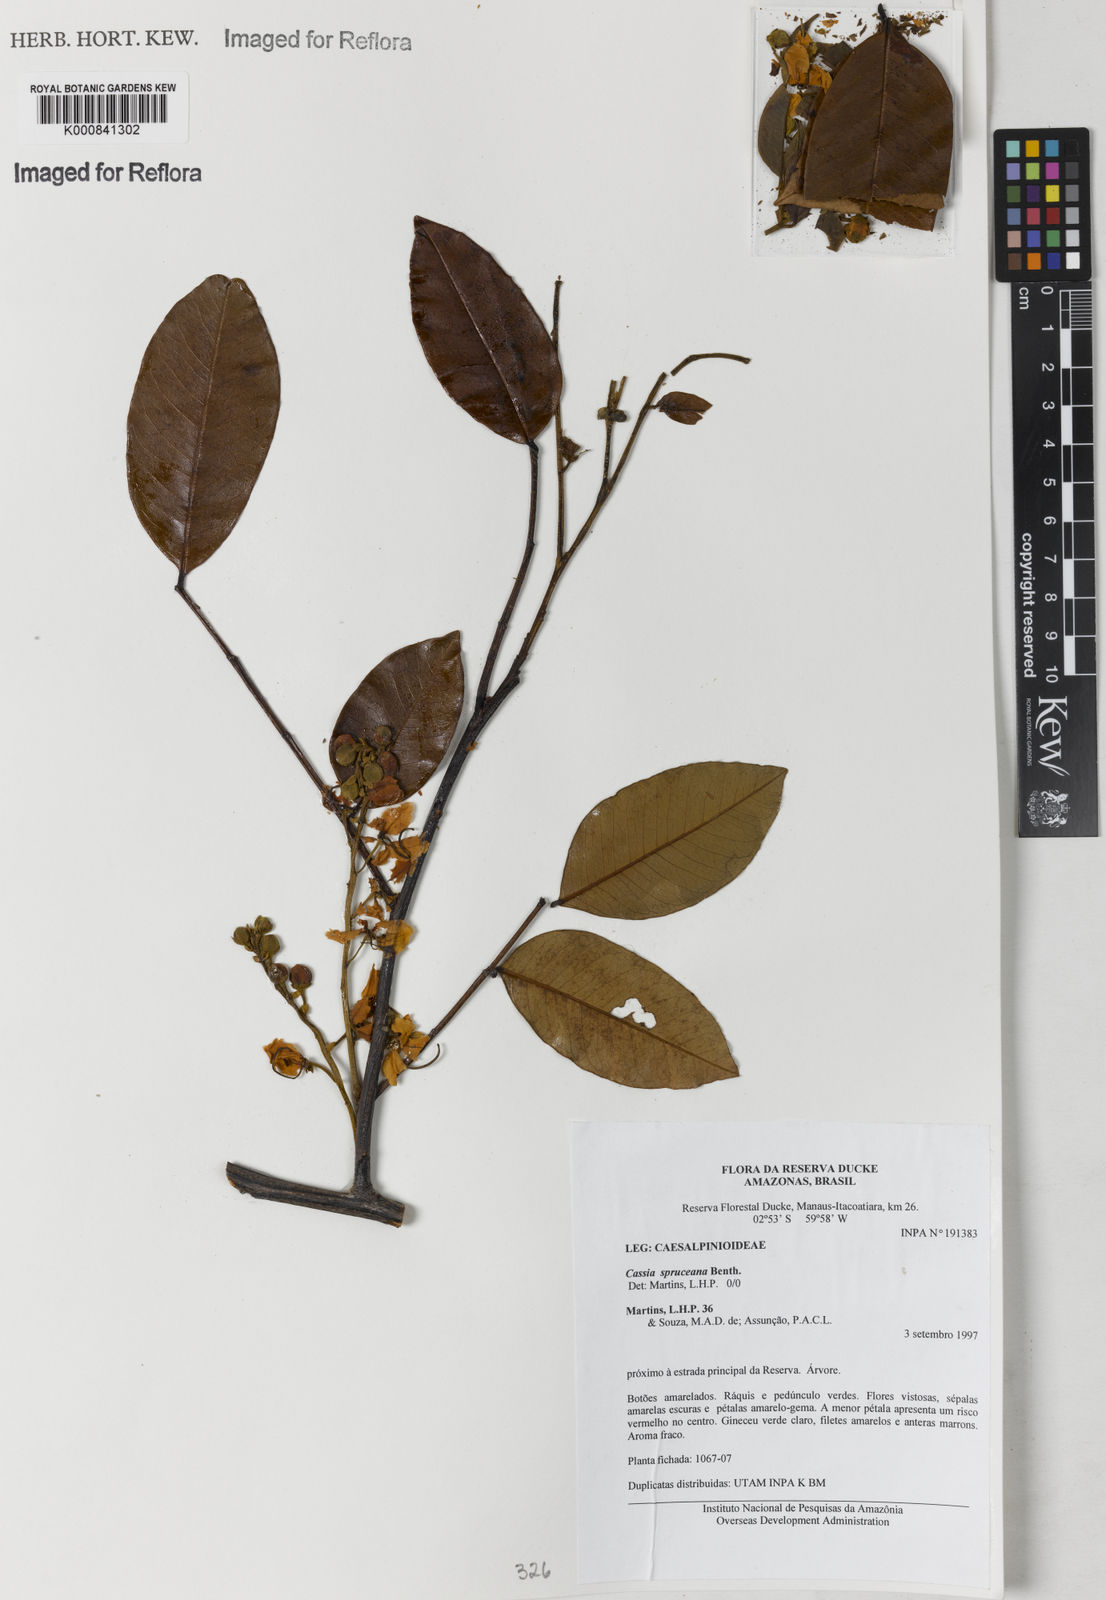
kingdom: Plantae
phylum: Tracheophyta
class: Magnoliopsida
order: Fabales
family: Fabaceae
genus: Cassia
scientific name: Cassia spruceana
